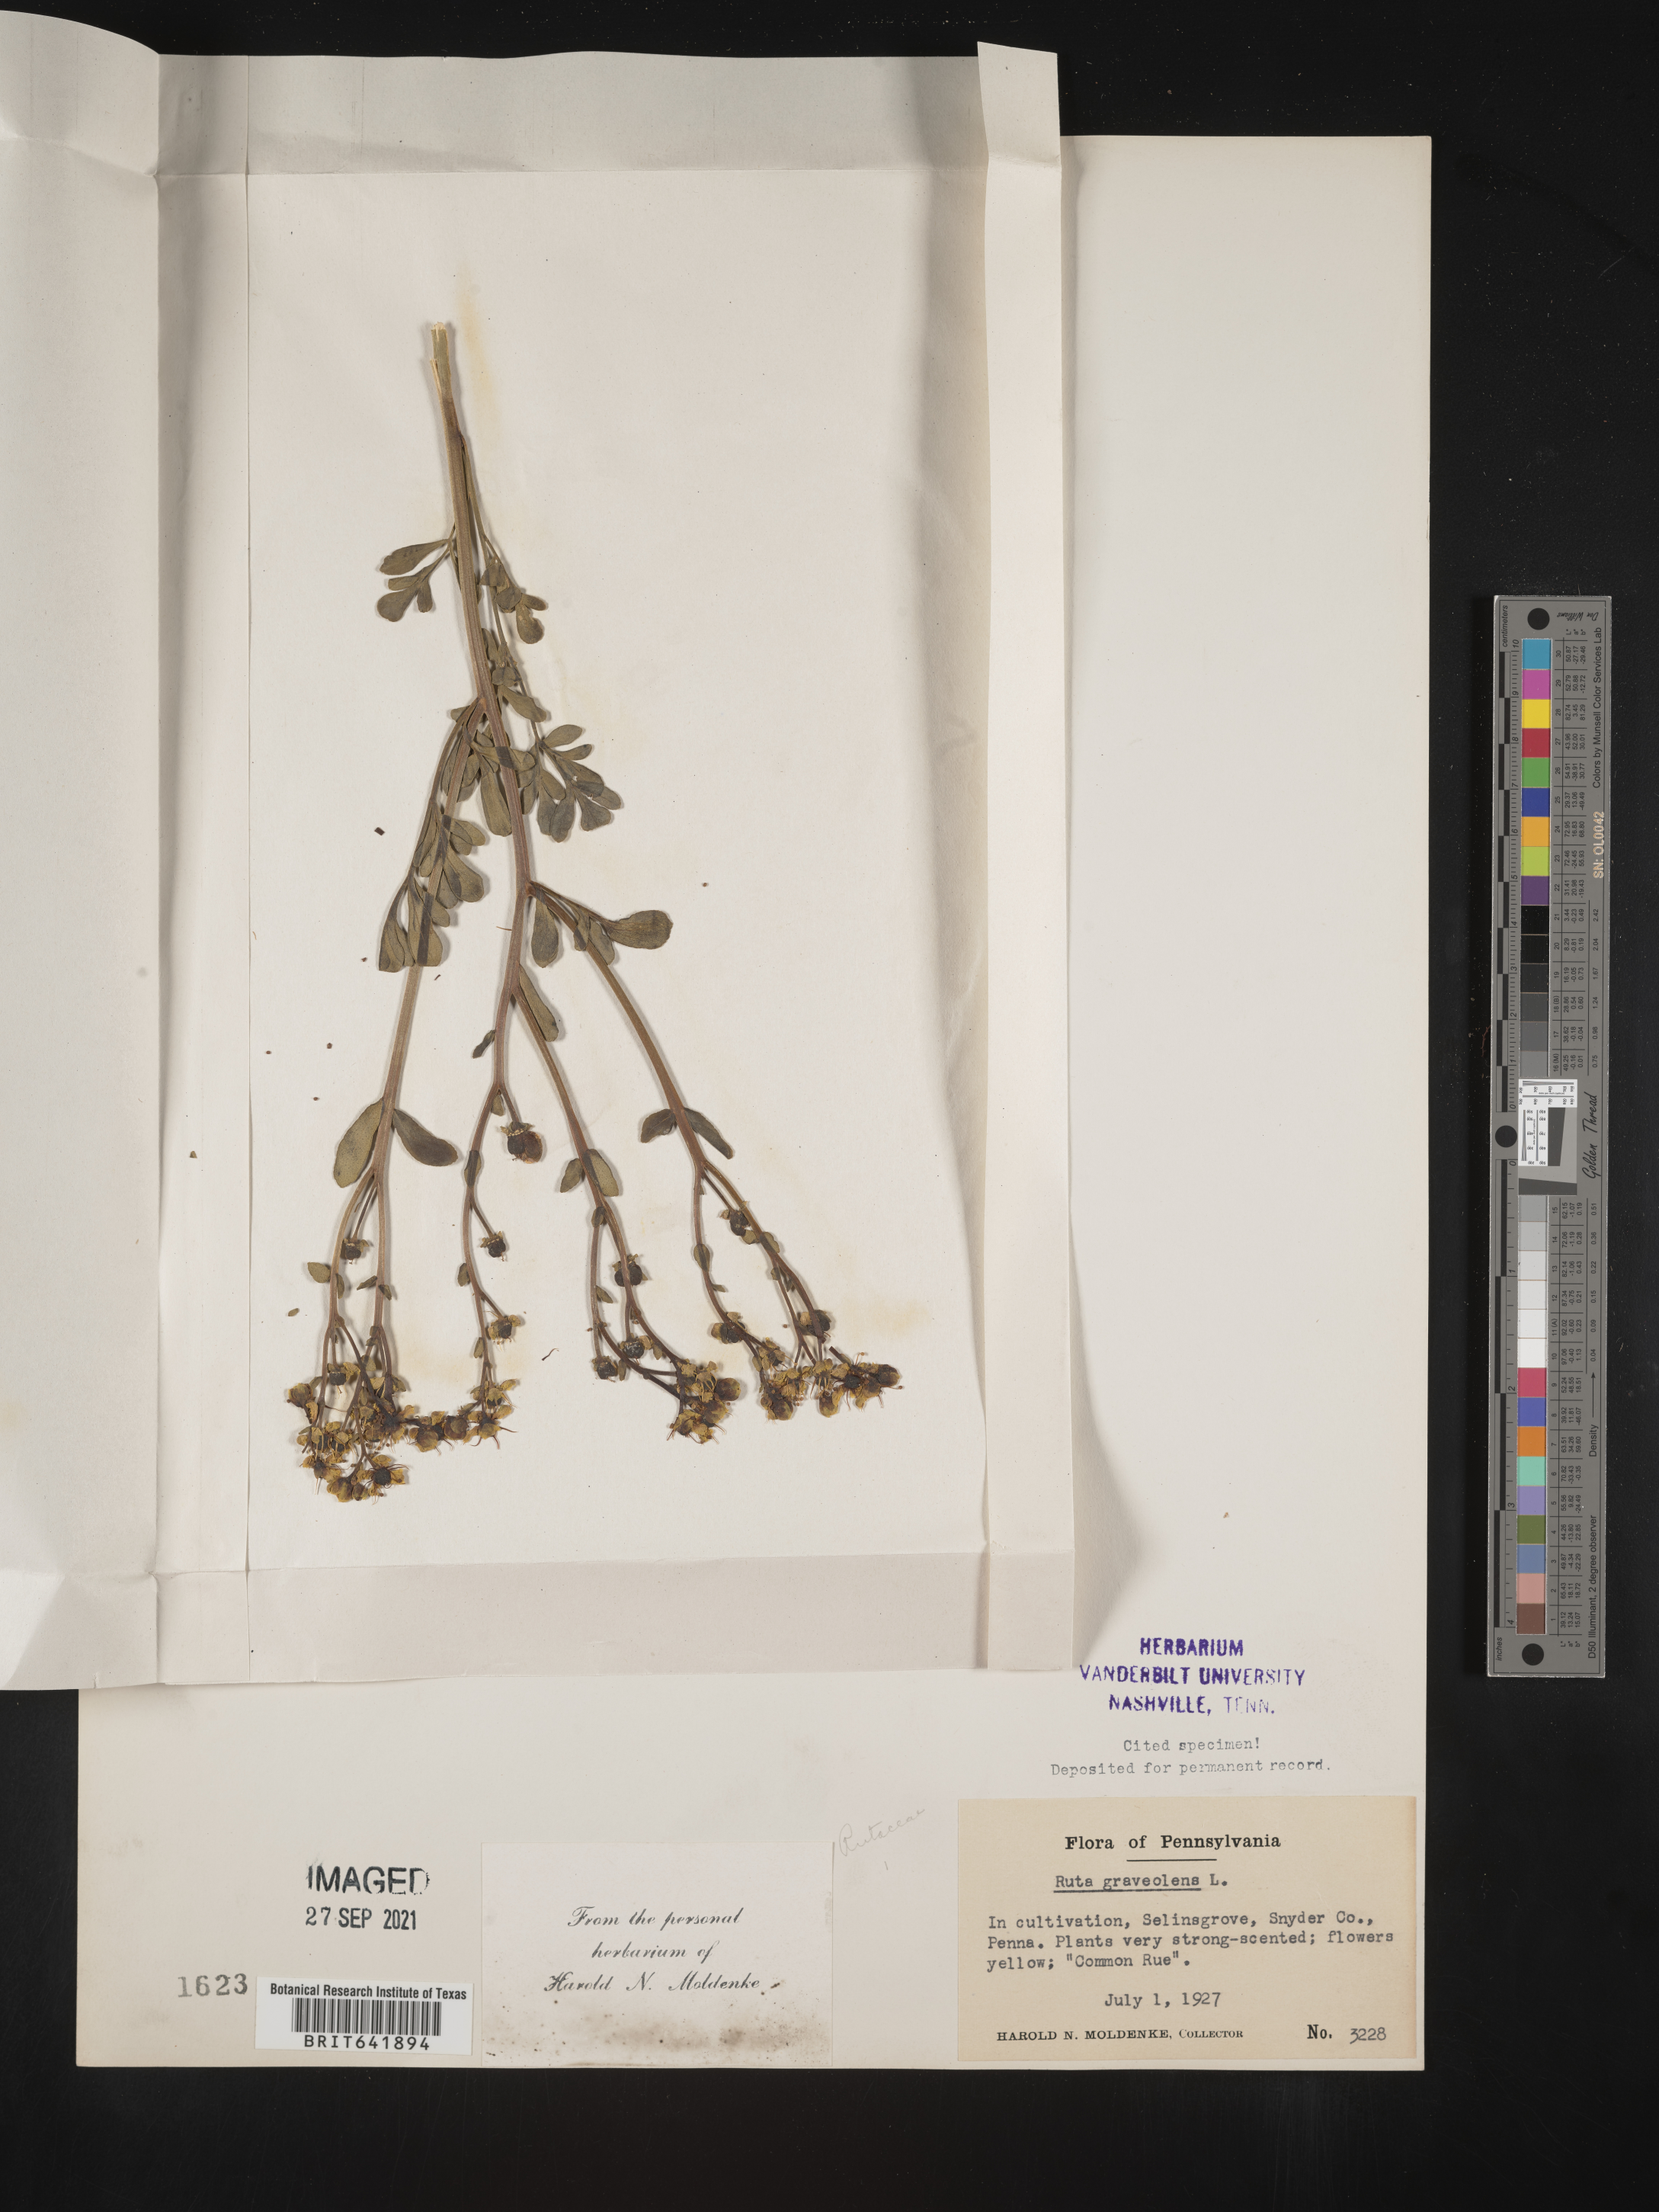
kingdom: Plantae
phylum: Tracheophyta
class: Magnoliopsida
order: Sapindales
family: Rutaceae
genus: Ruta
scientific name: Ruta
